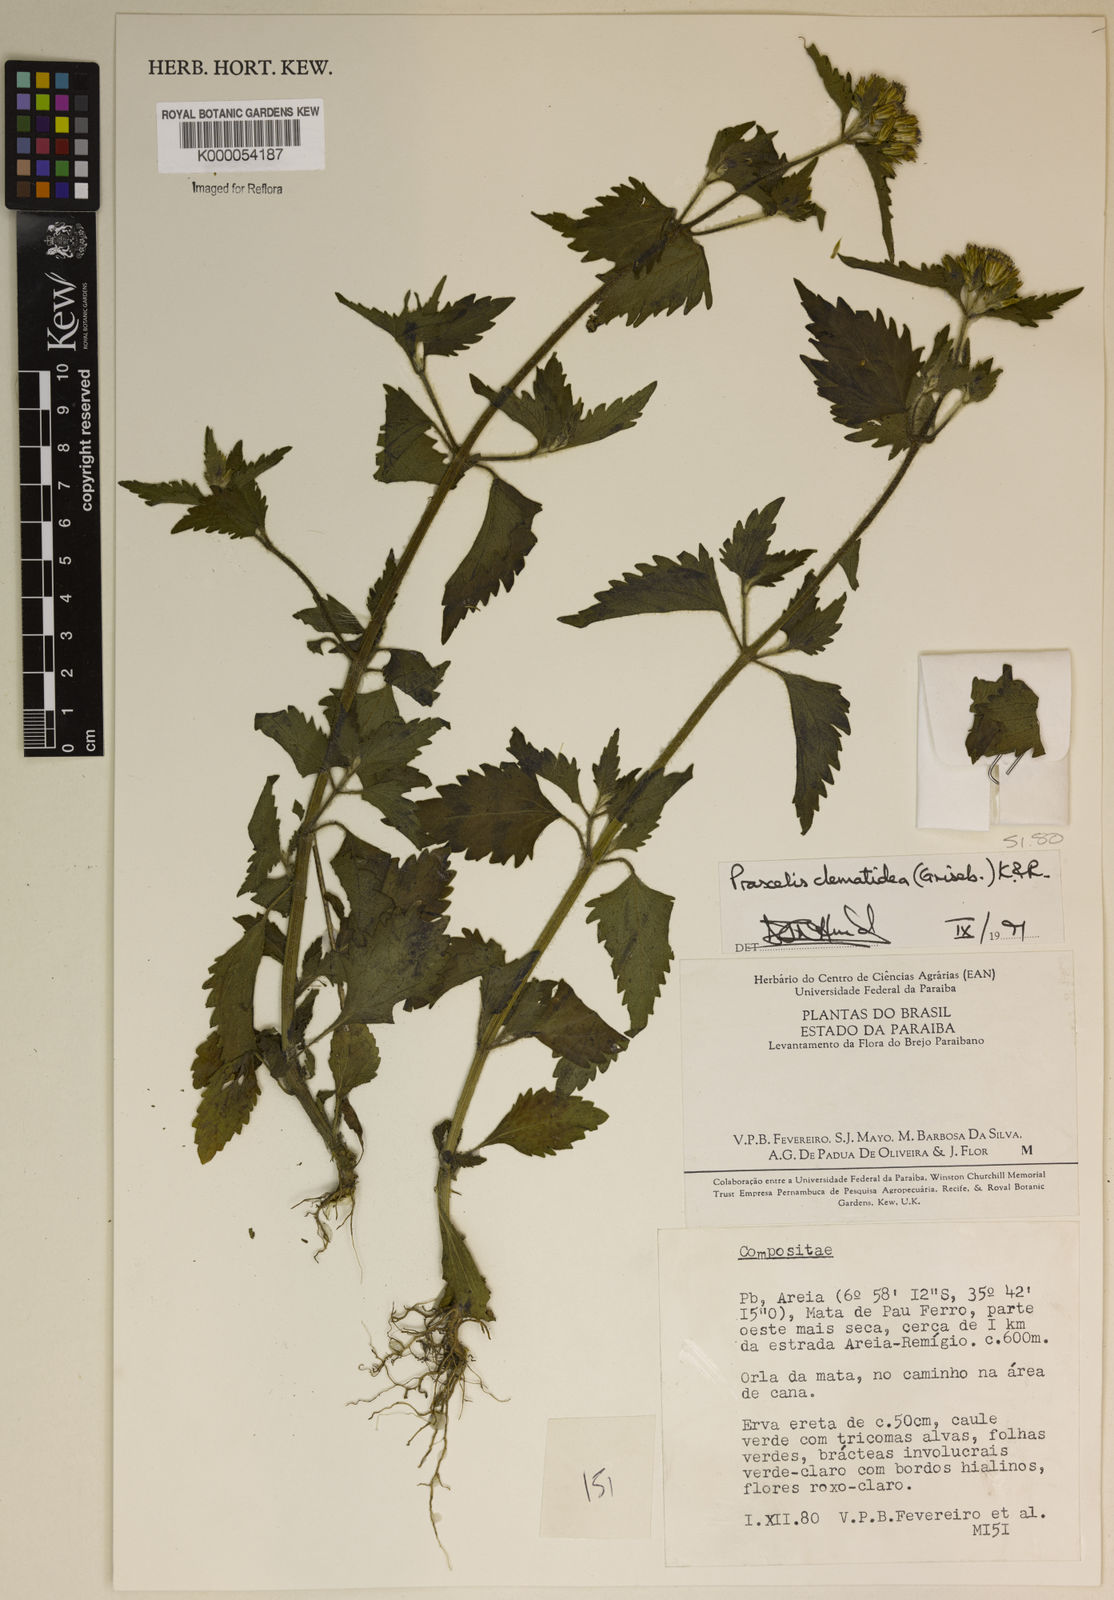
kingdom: Plantae
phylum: Tracheophyta
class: Magnoliopsida
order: Asterales
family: Asteraceae
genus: Praxelis
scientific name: Praxelis clematidea
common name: Praxelis
